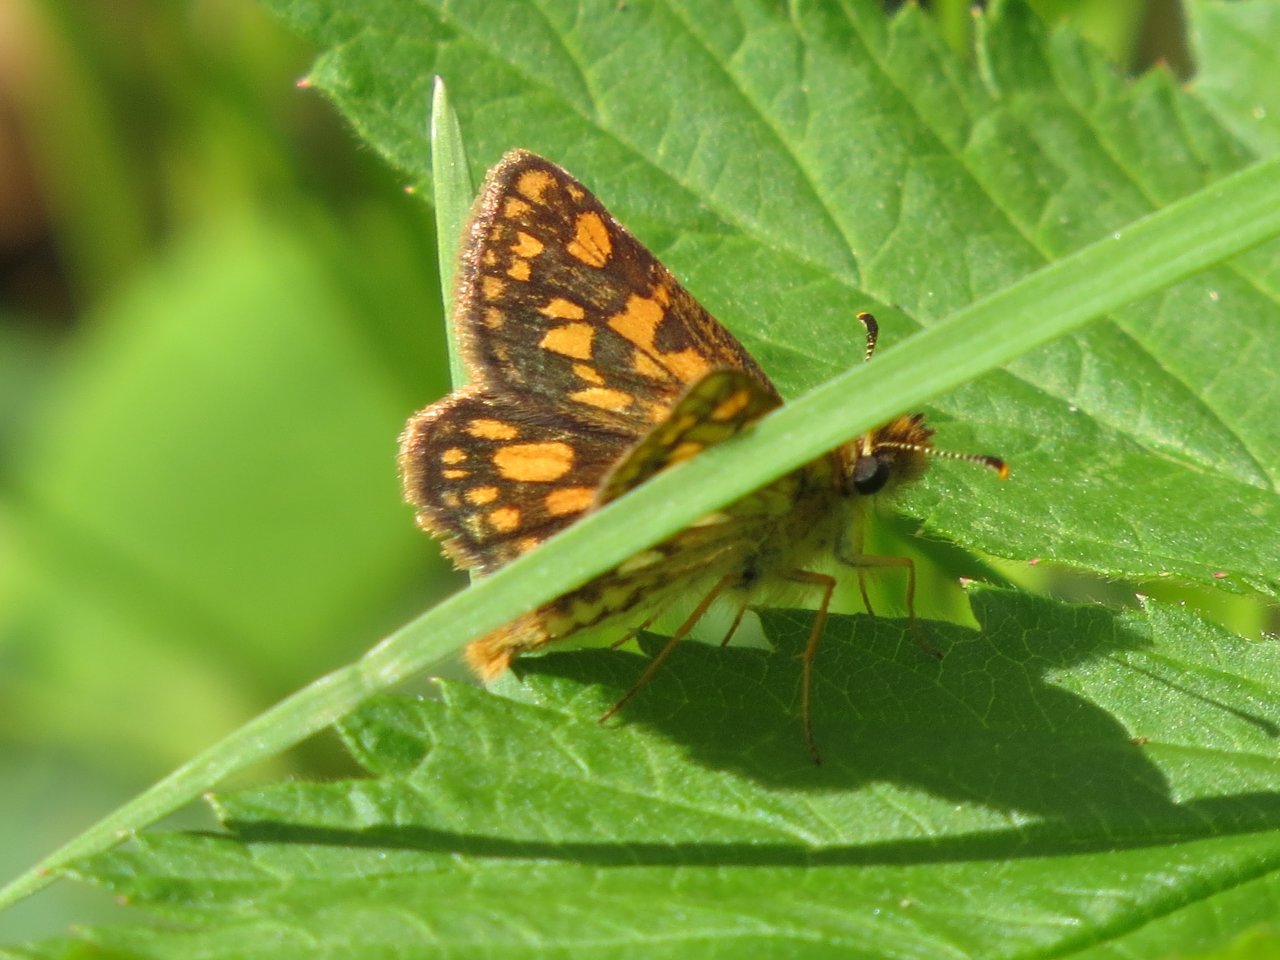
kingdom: Animalia
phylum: Arthropoda
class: Insecta
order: Lepidoptera
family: Hesperiidae
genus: Carterocephalus
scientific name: Carterocephalus palaemon
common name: Chequered Skipper
